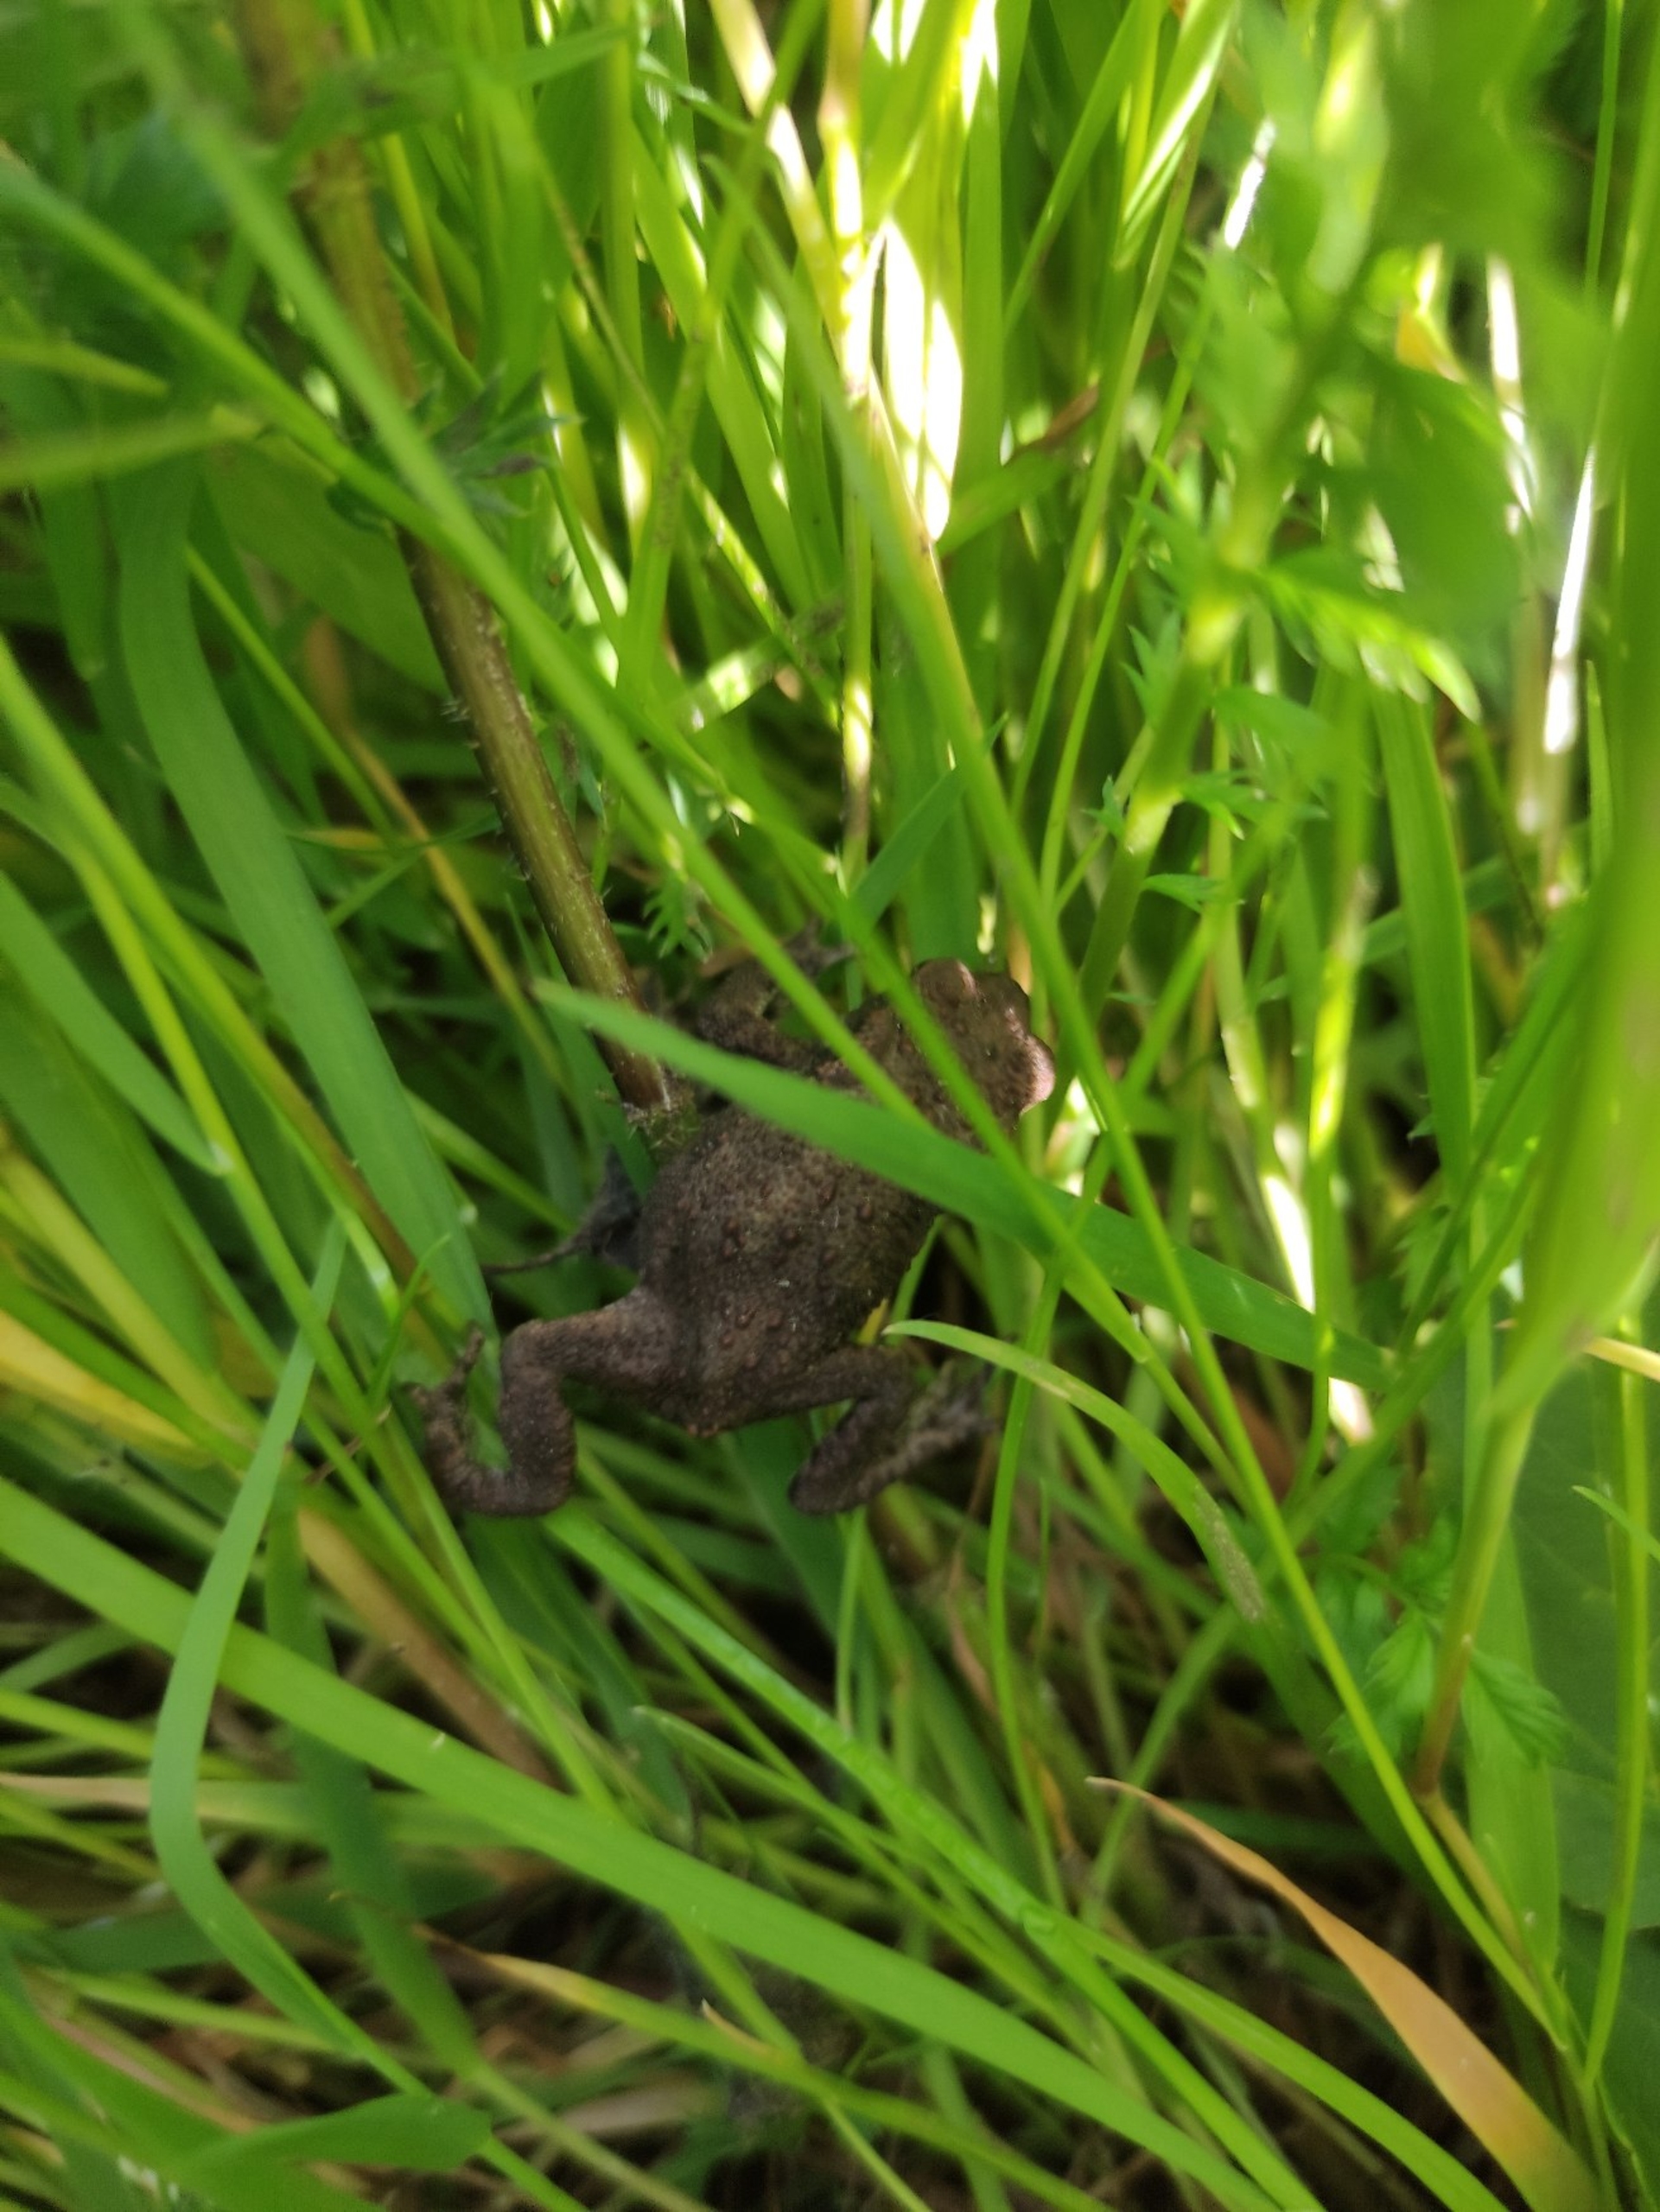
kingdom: Animalia
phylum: Chordata
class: Amphibia
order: Anura
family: Bufonidae
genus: Bufo
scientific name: Bufo bufo
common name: Skrubtudse
